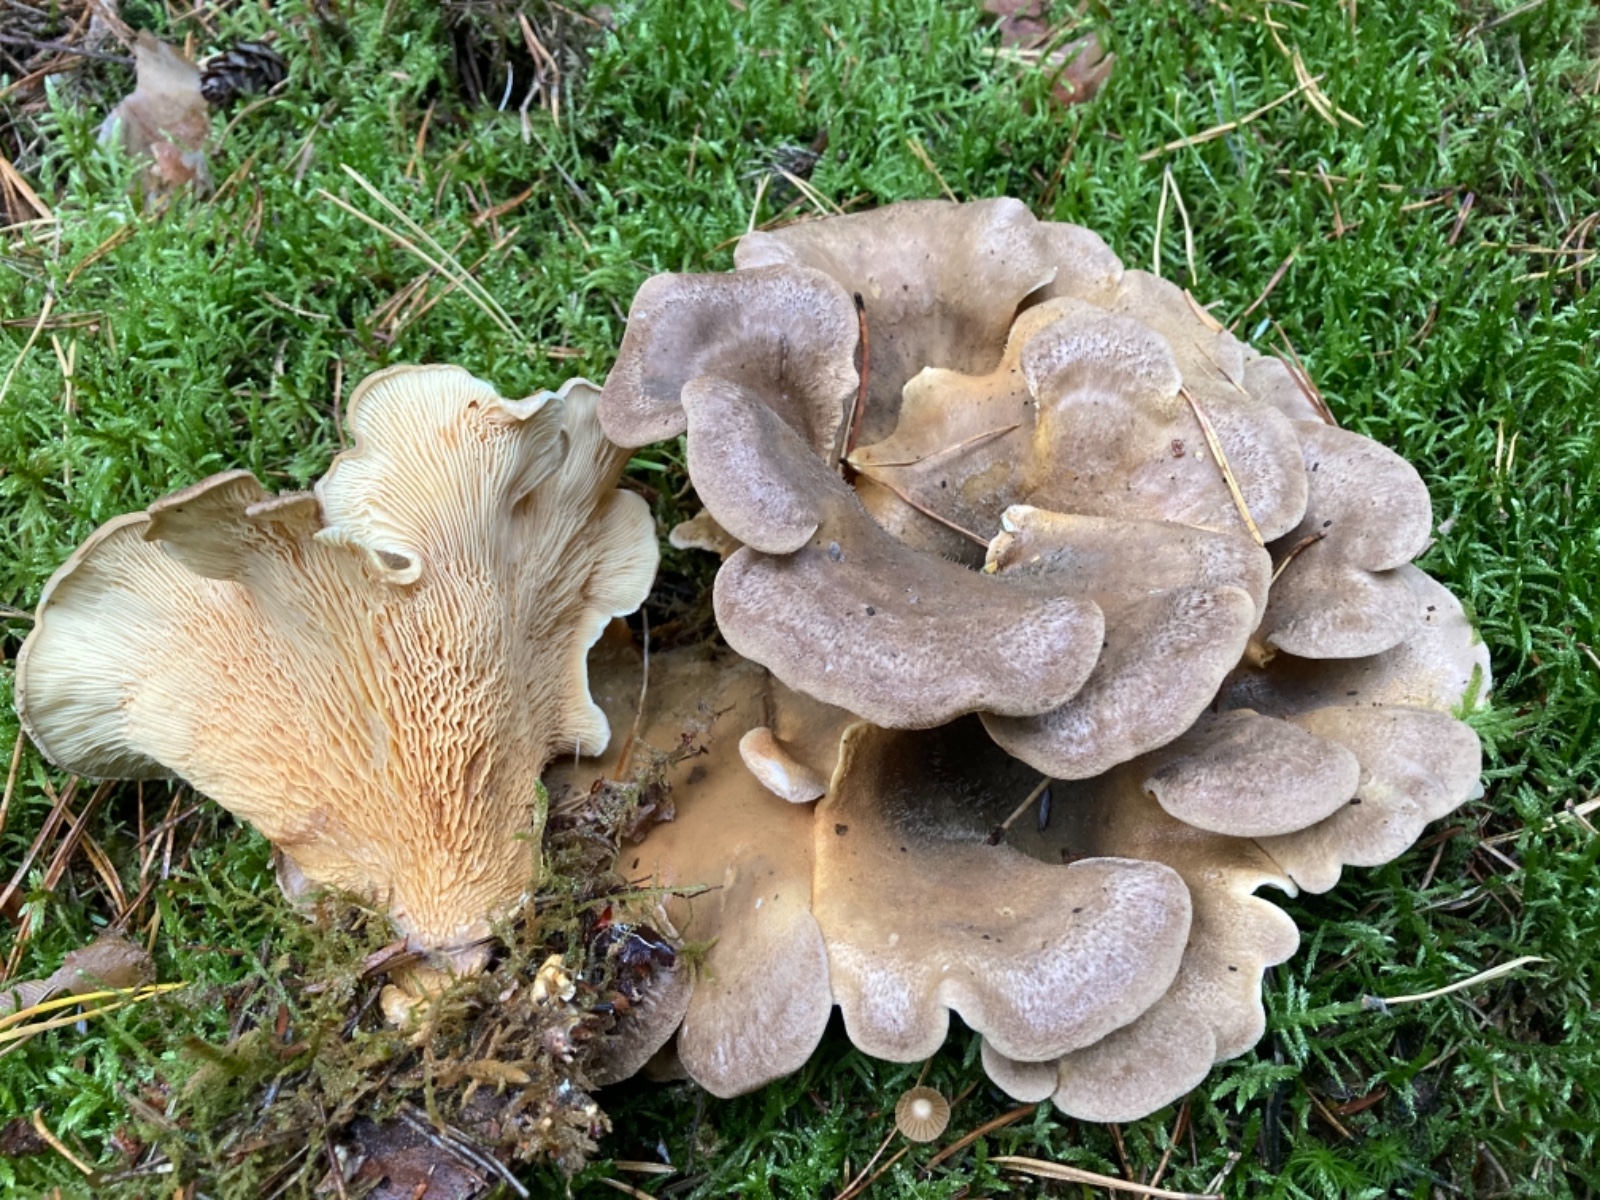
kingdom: Fungi
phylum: Basidiomycota
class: Agaricomycetes
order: Boletales
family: Tapinellaceae
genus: Tapinella
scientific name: Tapinella panuoides
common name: tømmer-viftesvamp
